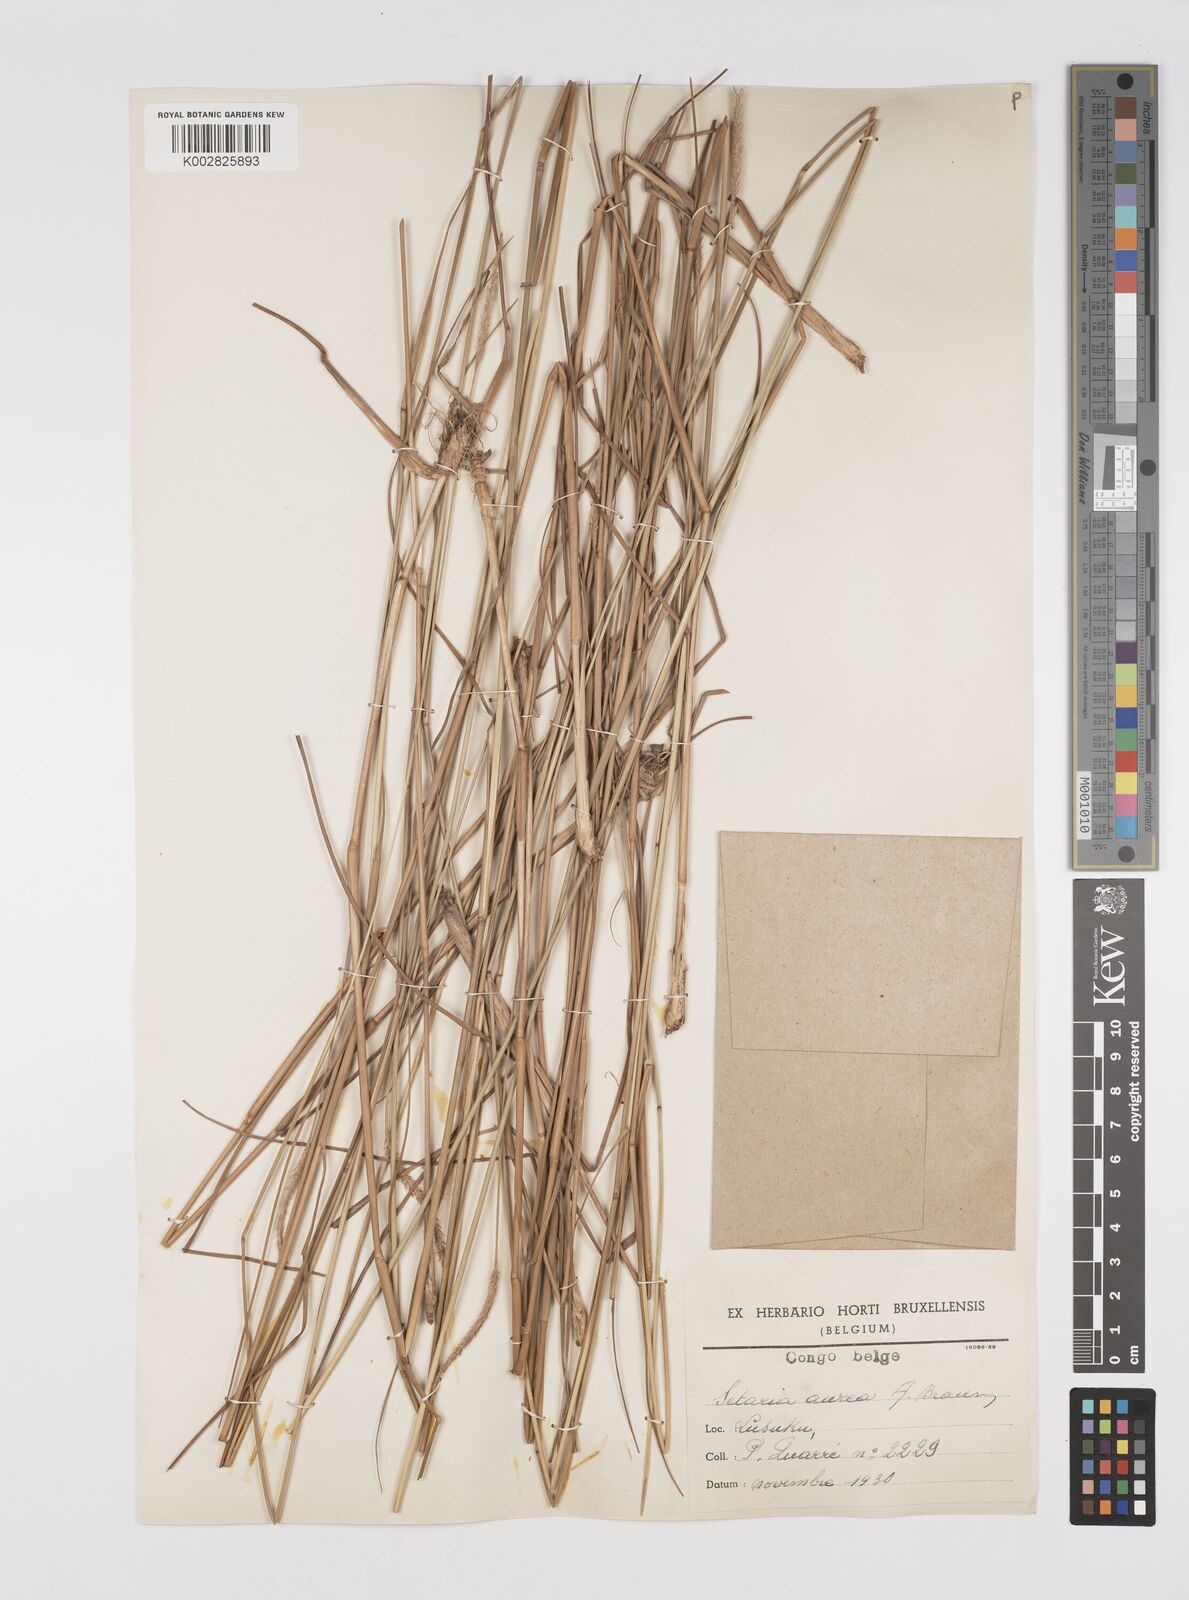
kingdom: Plantae
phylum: Tracheophyta
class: Liliopsida
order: Poales
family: Poaceae
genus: Setaria
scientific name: Setaria restioidea
